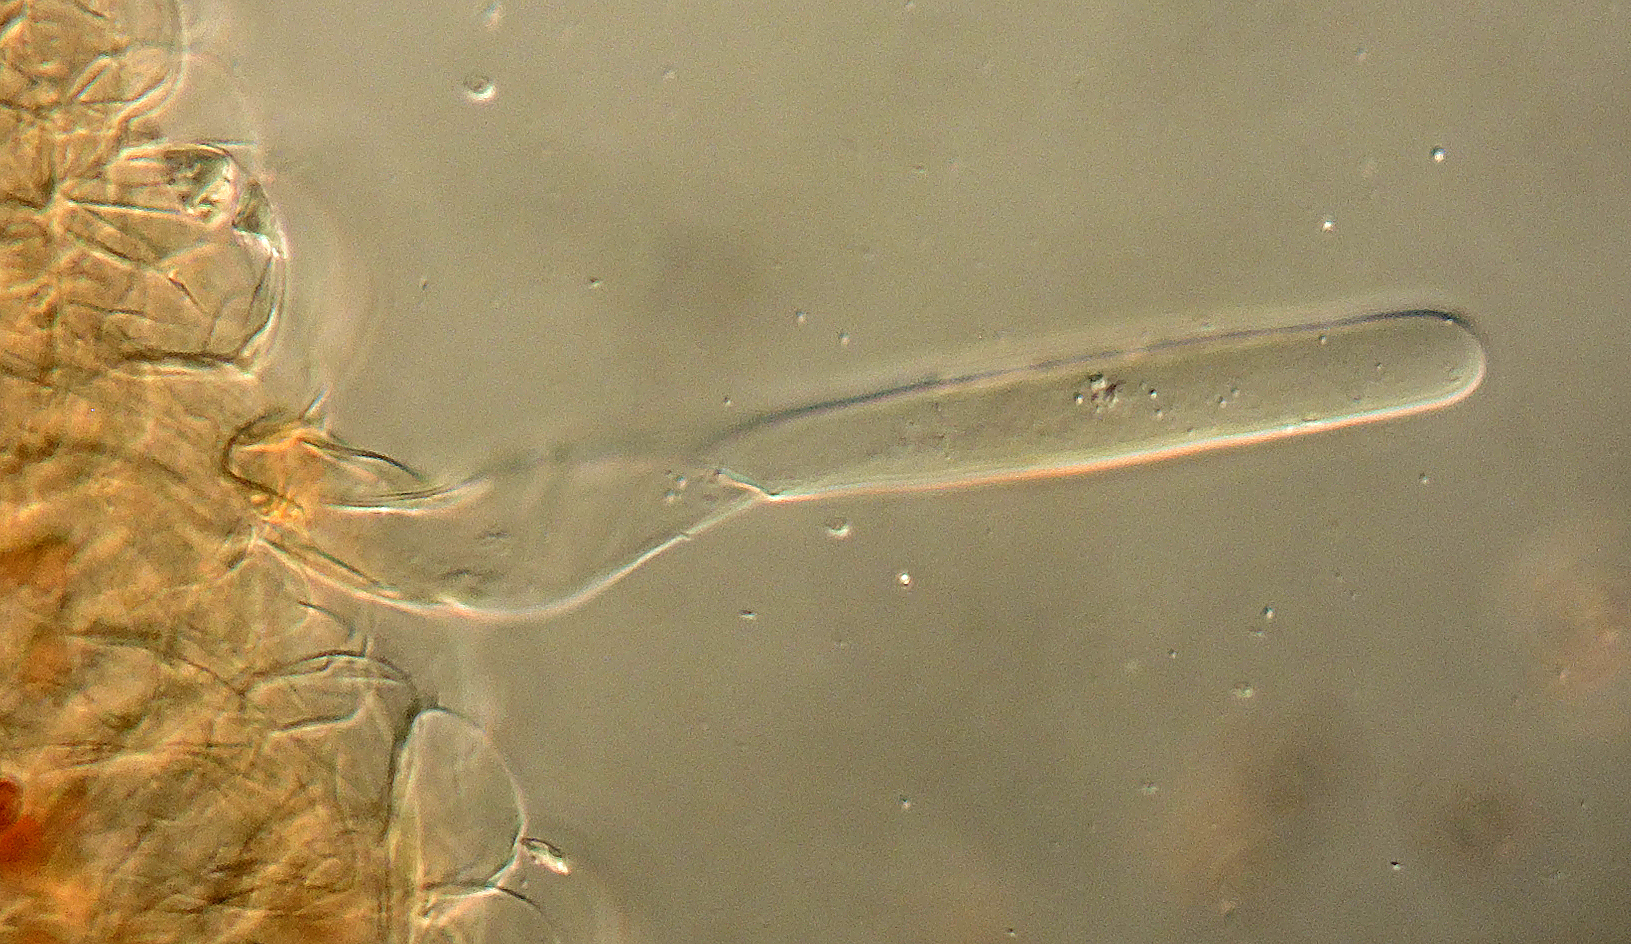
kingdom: Fungi
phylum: Basidiomycota
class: Agaricomycetes
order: Agaricales
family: Psathyrellaceae
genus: Coprinellus
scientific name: Coprinellus disseminatus
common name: bredsået blækhat
